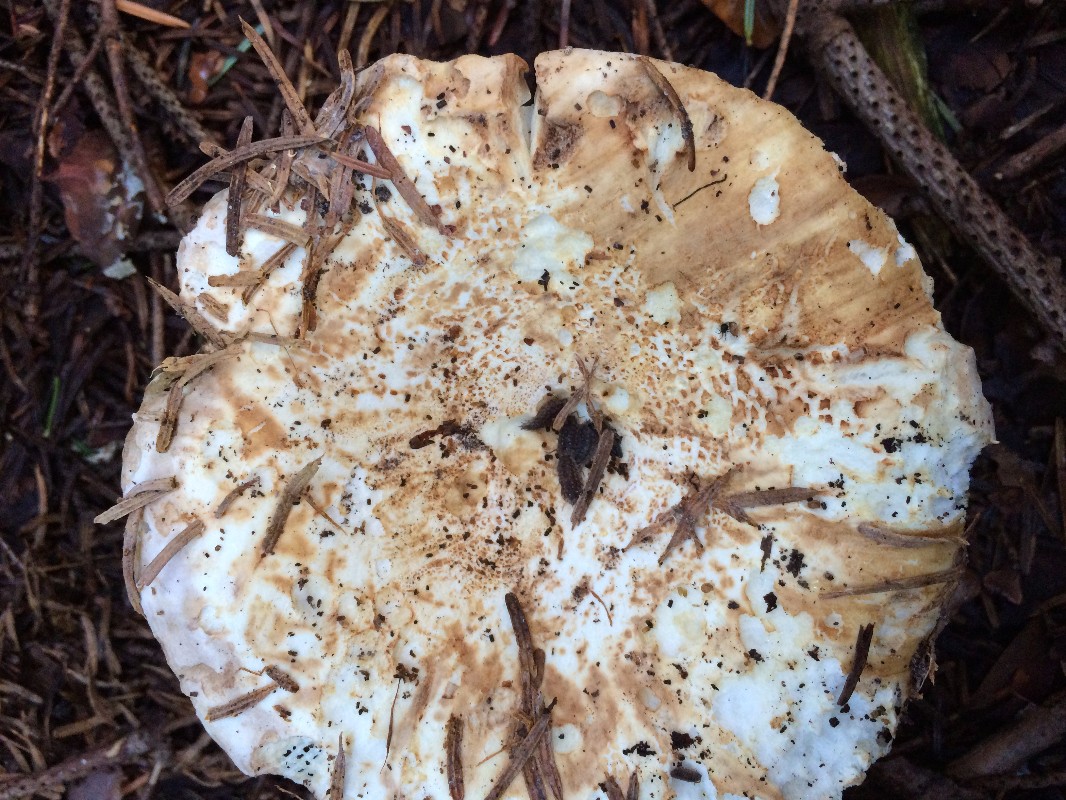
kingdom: Fungi
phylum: Basidiomycota
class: Agaricomycetes
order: Russulales
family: Russulaceae
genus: Russula
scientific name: Russula delica
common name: almindelig tragt-skørhat
